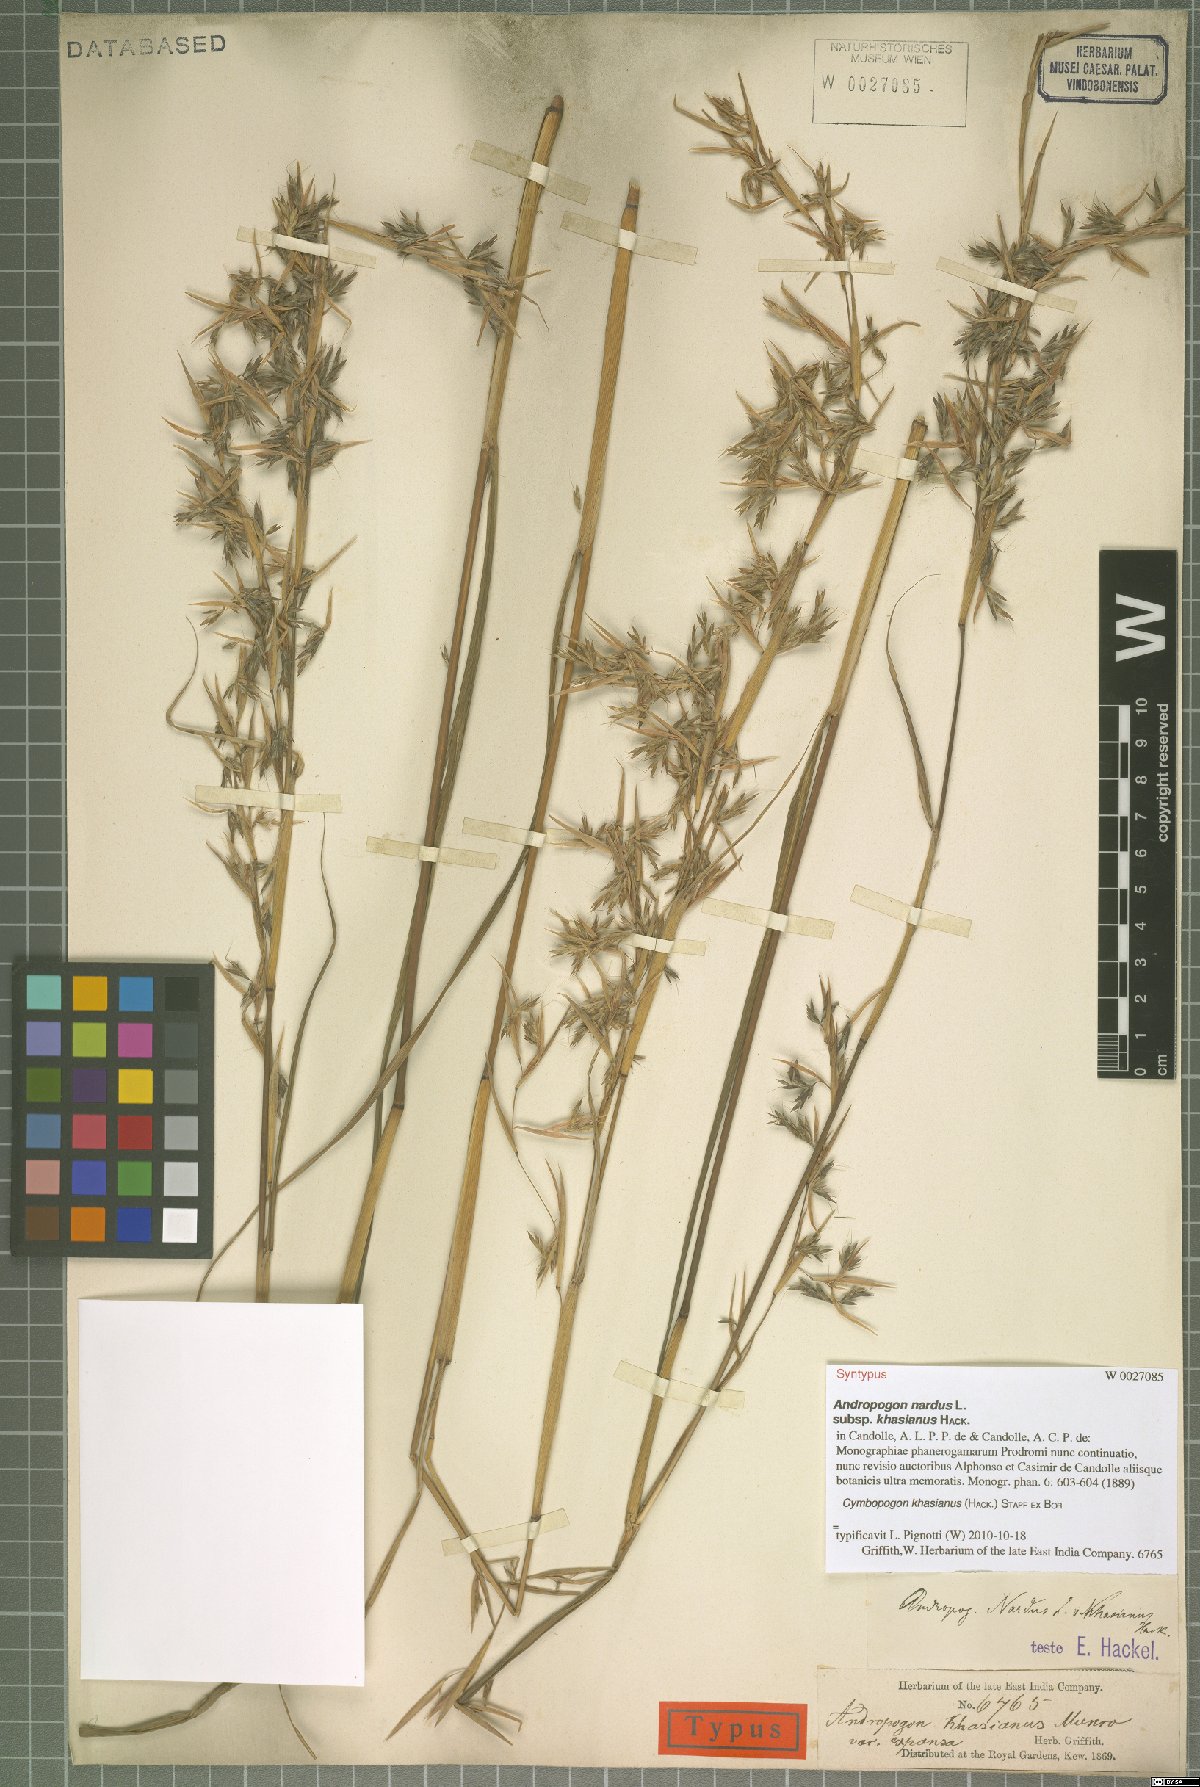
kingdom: Plantae
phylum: Tracheophyta
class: Liliopsida
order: Poales
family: Poaceae
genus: Cymbopogon
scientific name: Cymbopogon khasianus
